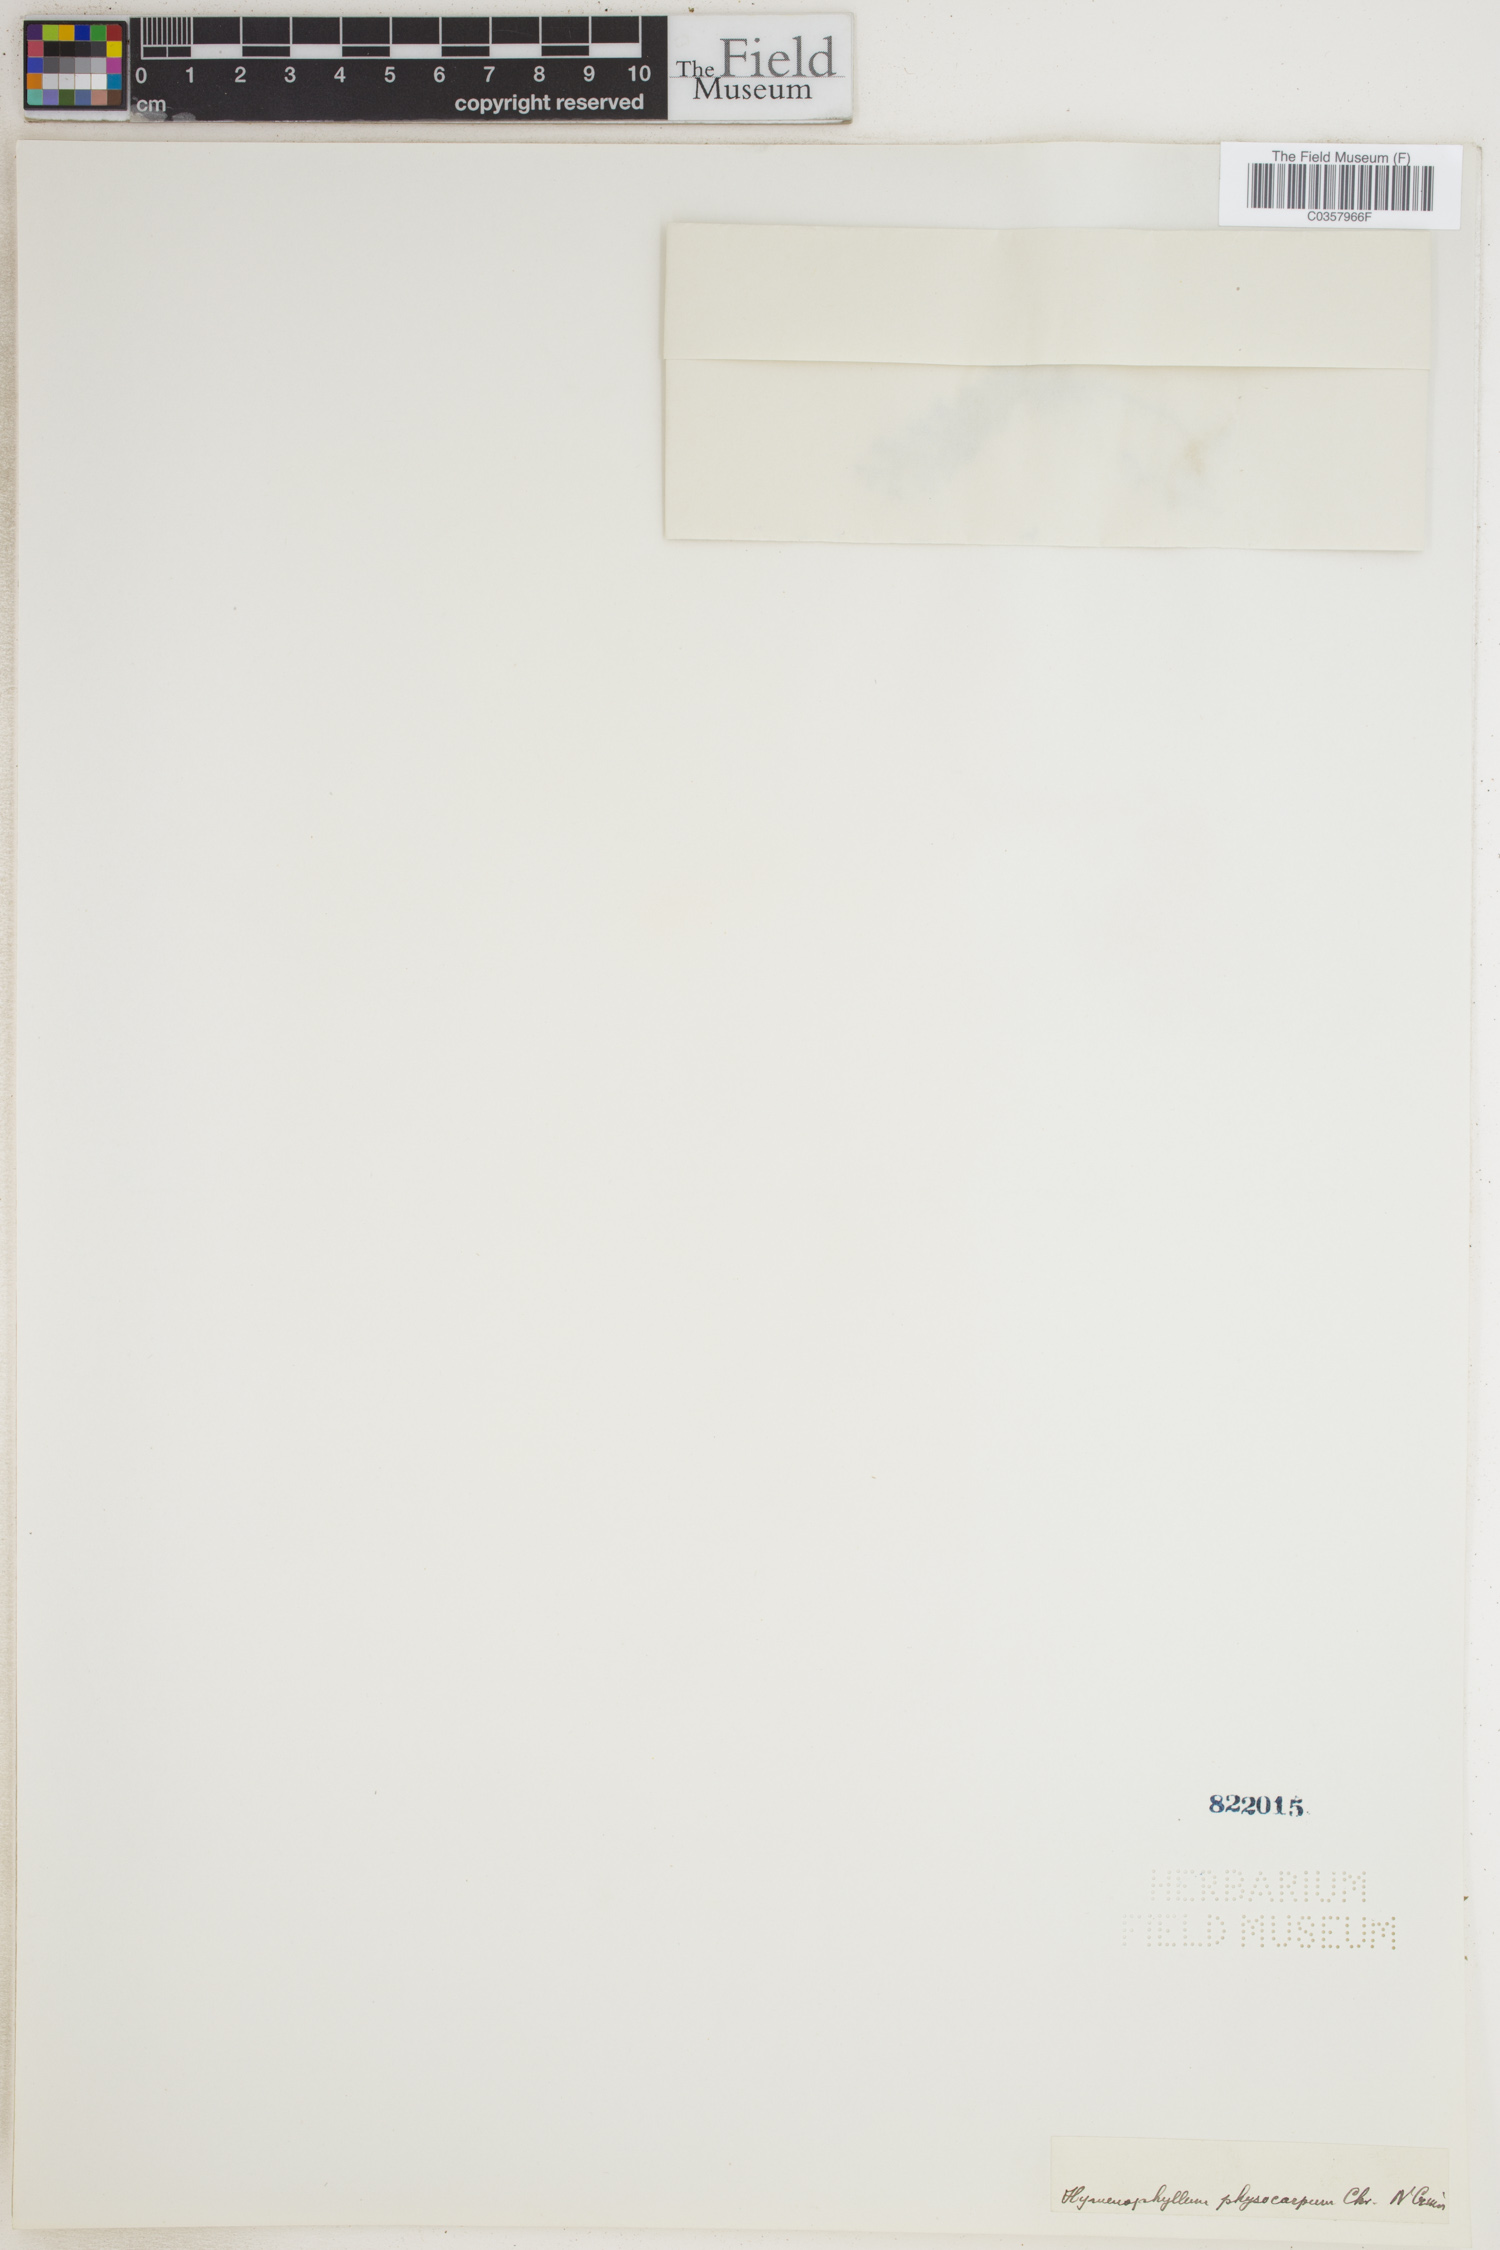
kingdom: Plantae
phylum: Tracheophyta
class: Polypodiopsida
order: Hymenophyllales
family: Hymenophyllaceae
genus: Hymenophyllum
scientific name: Hymenophyllum thuidium
